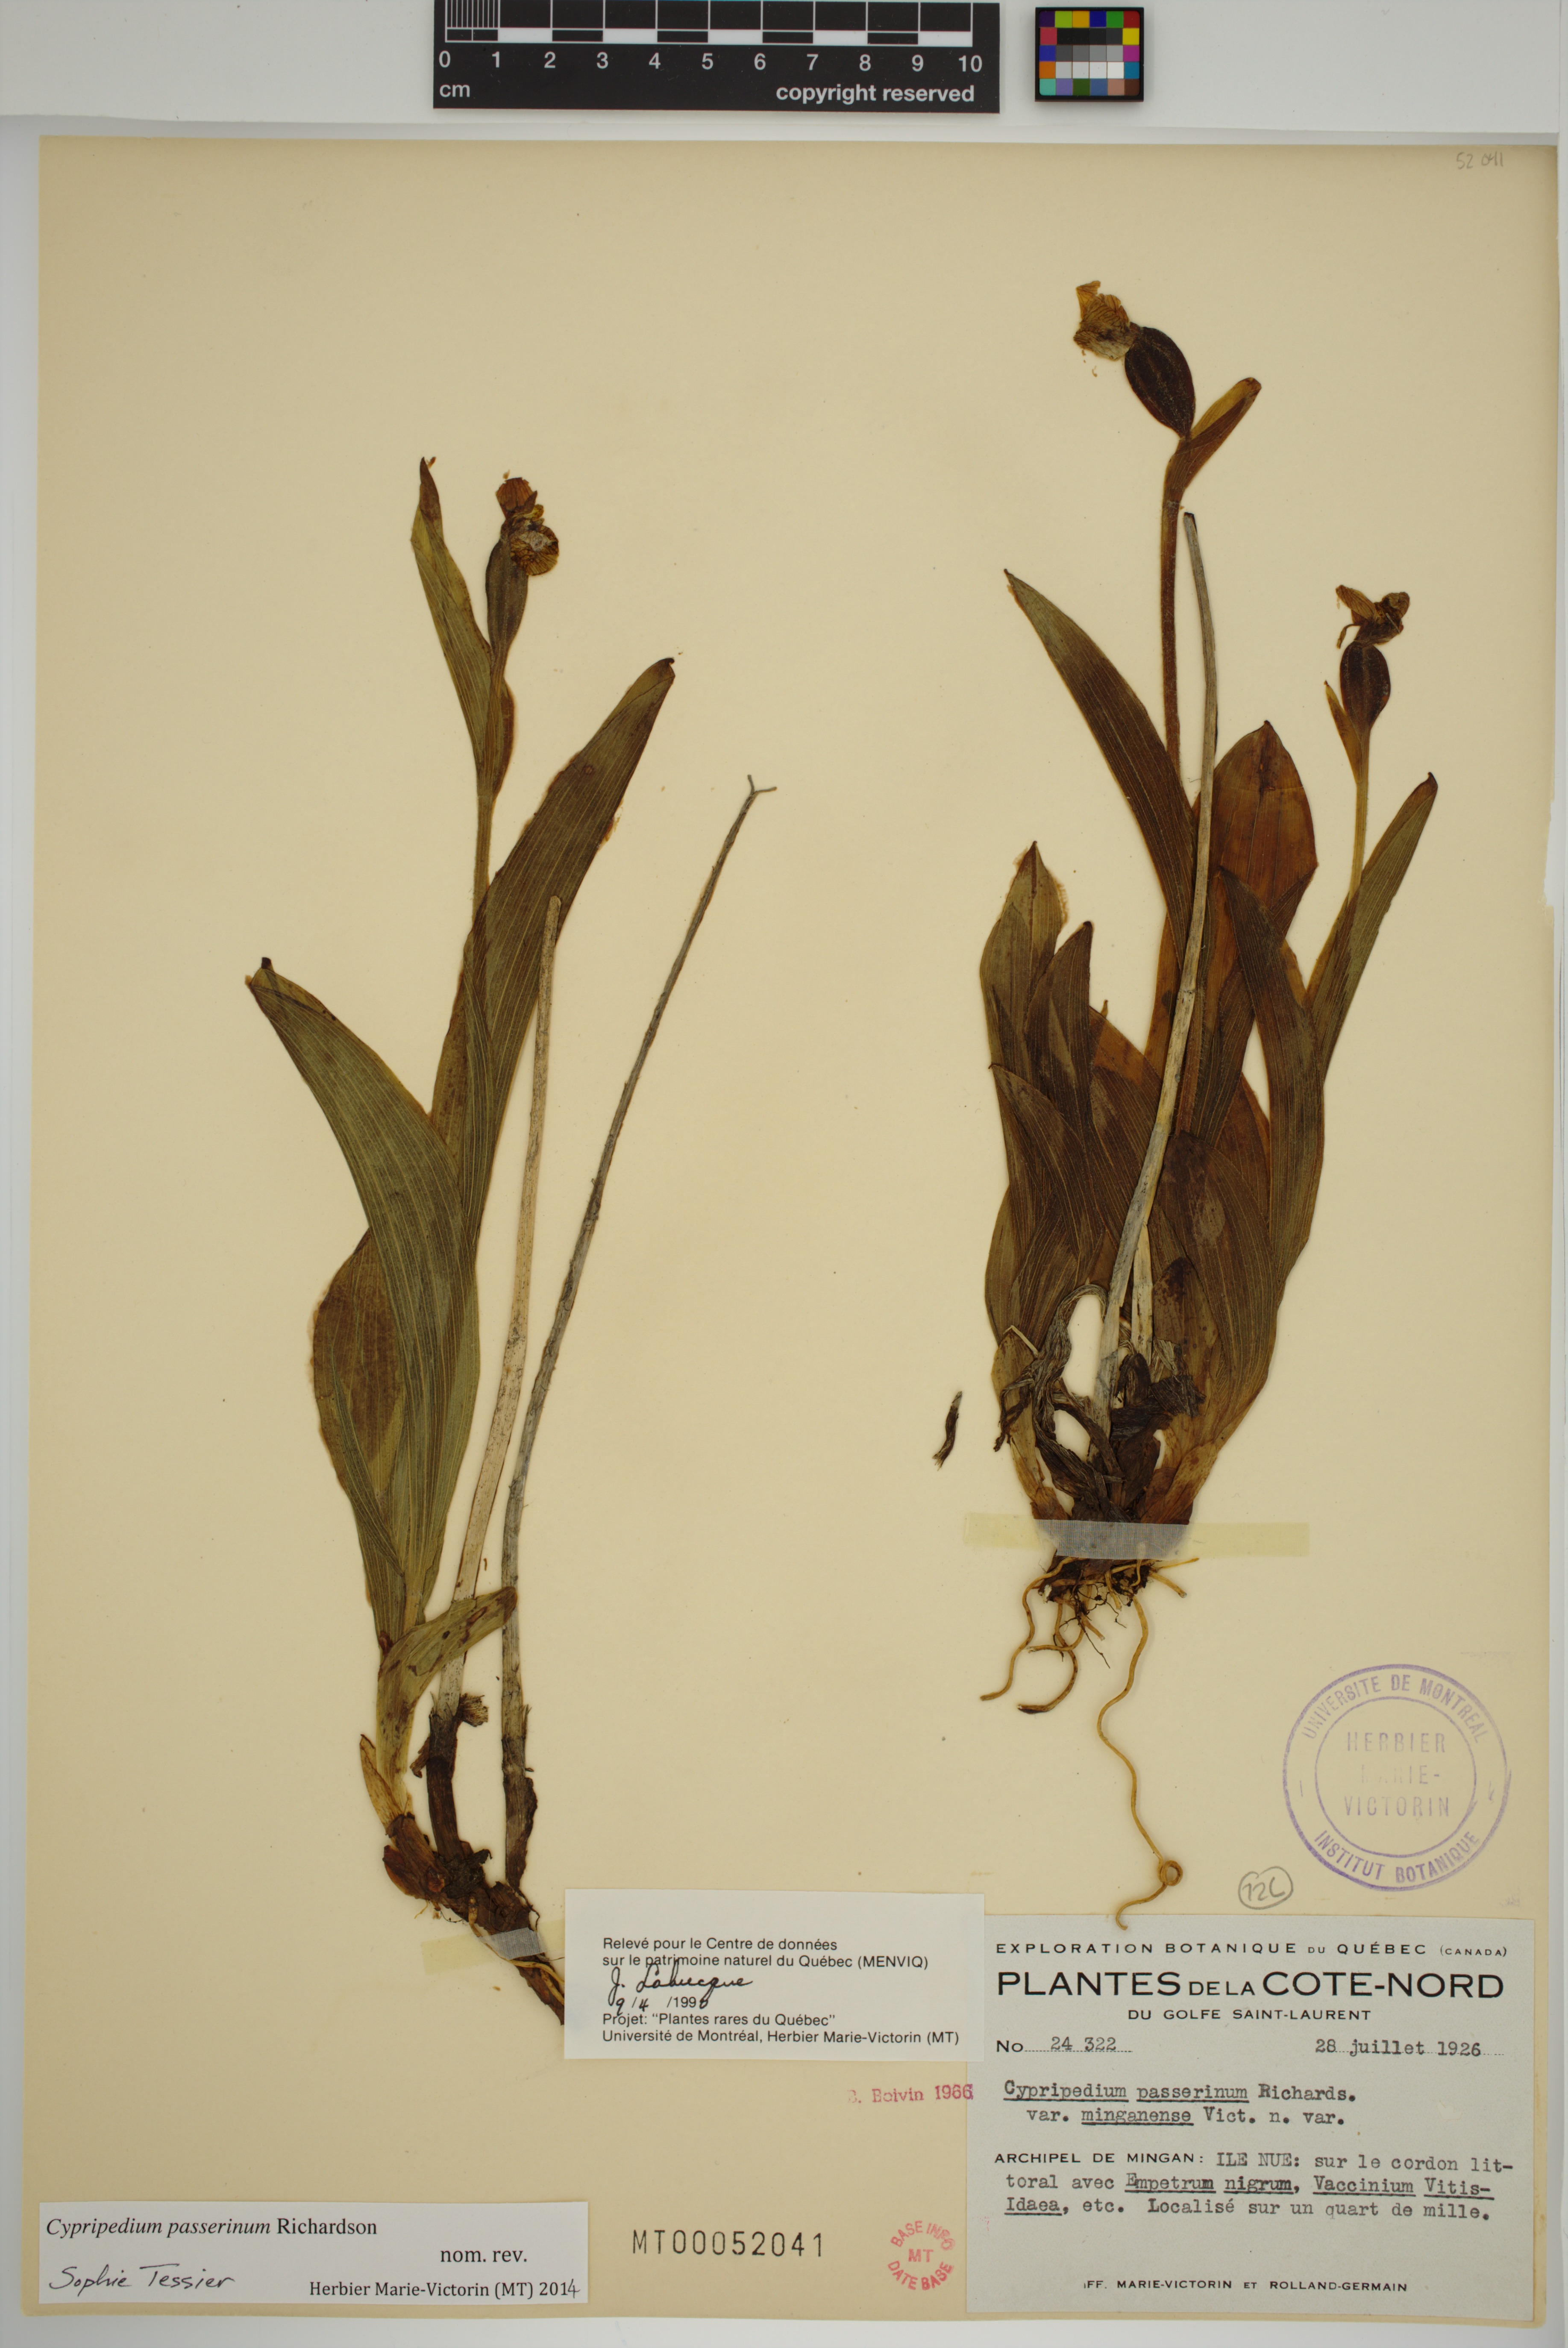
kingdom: Plantae
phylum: Tracheophyta
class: Liliopsida
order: Asparagales
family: Orchidaceae
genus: Cypripedium
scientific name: Cypripedium passerinum
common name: Sparrow's-egg lady's-slipper
